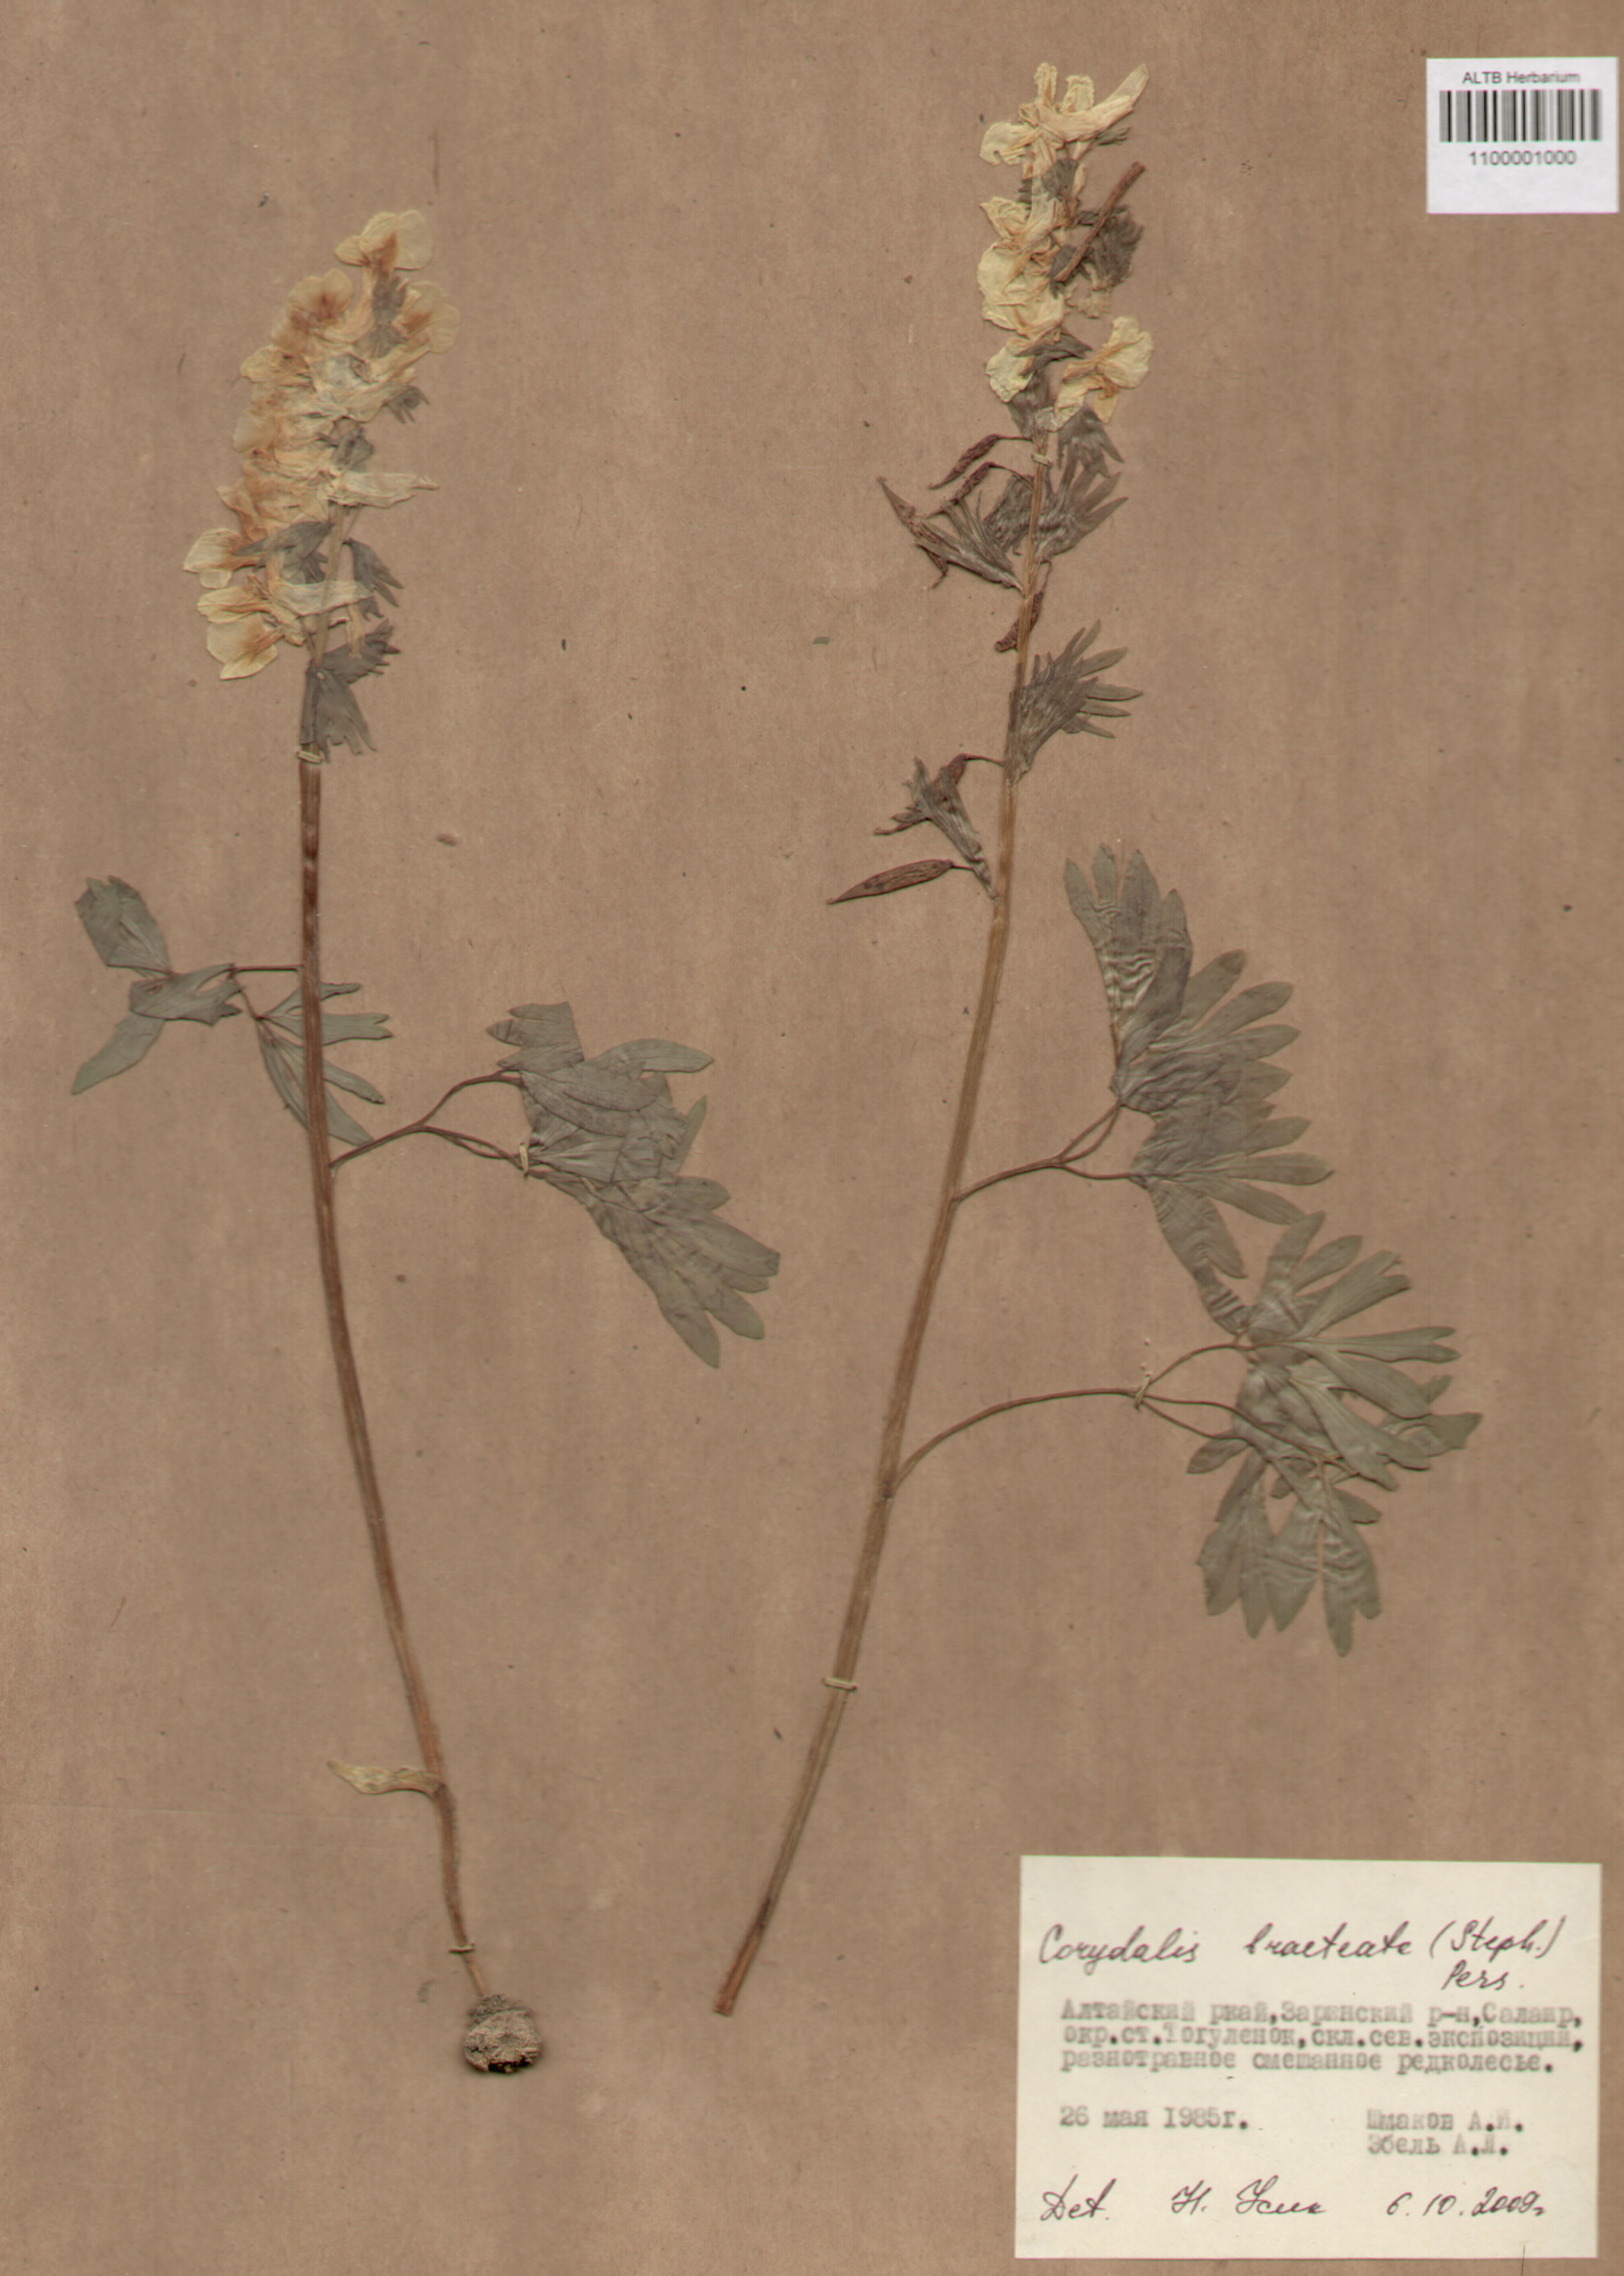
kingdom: Plantae
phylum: Tracheophyta
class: Magnoliopsida
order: Ranunculales
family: Papaveraceae
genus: Corydalis
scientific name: Corydalis bracteata
